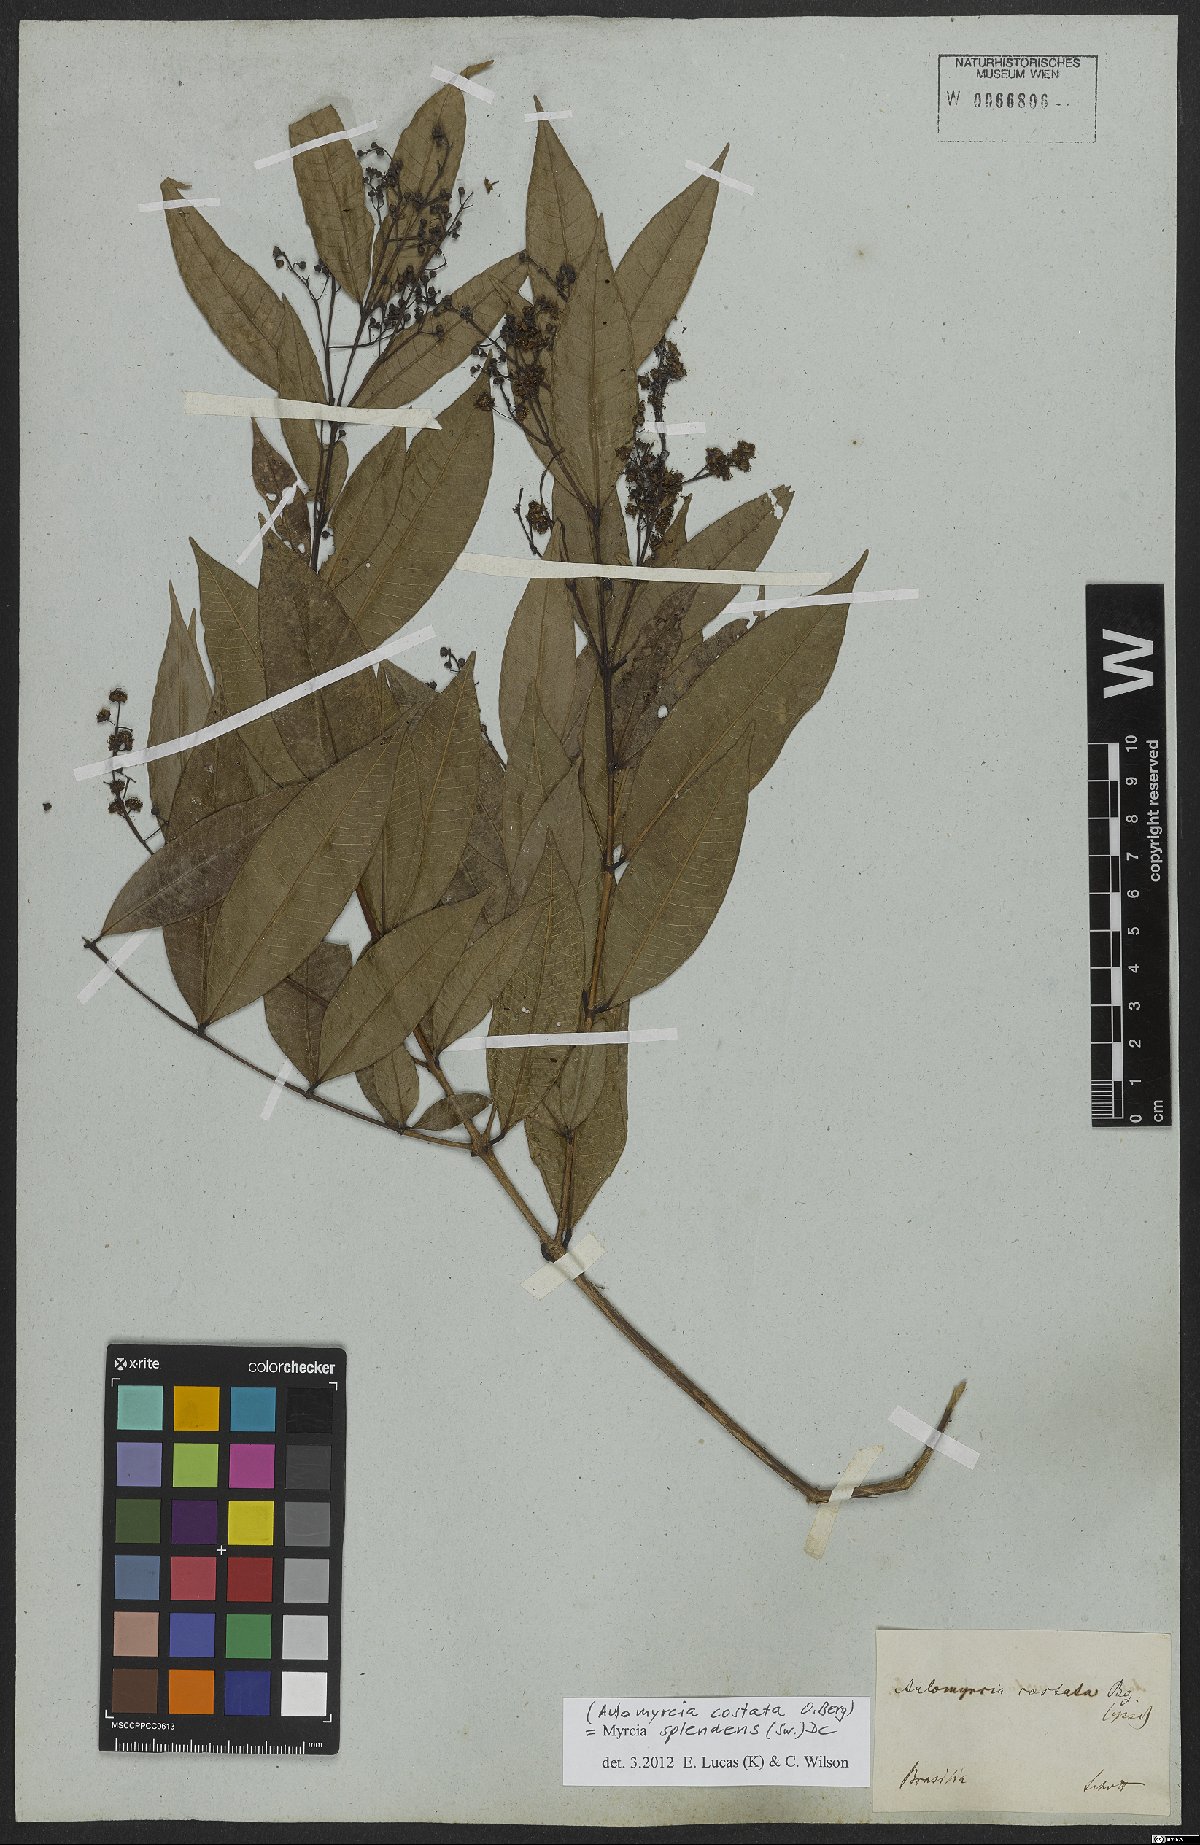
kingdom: Plantae
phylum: Tracheophyta
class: Magnoliopsida
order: Myrtales
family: Myrtaceae
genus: Myrcia
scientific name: Myrcia splendens
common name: Surinam cherry
